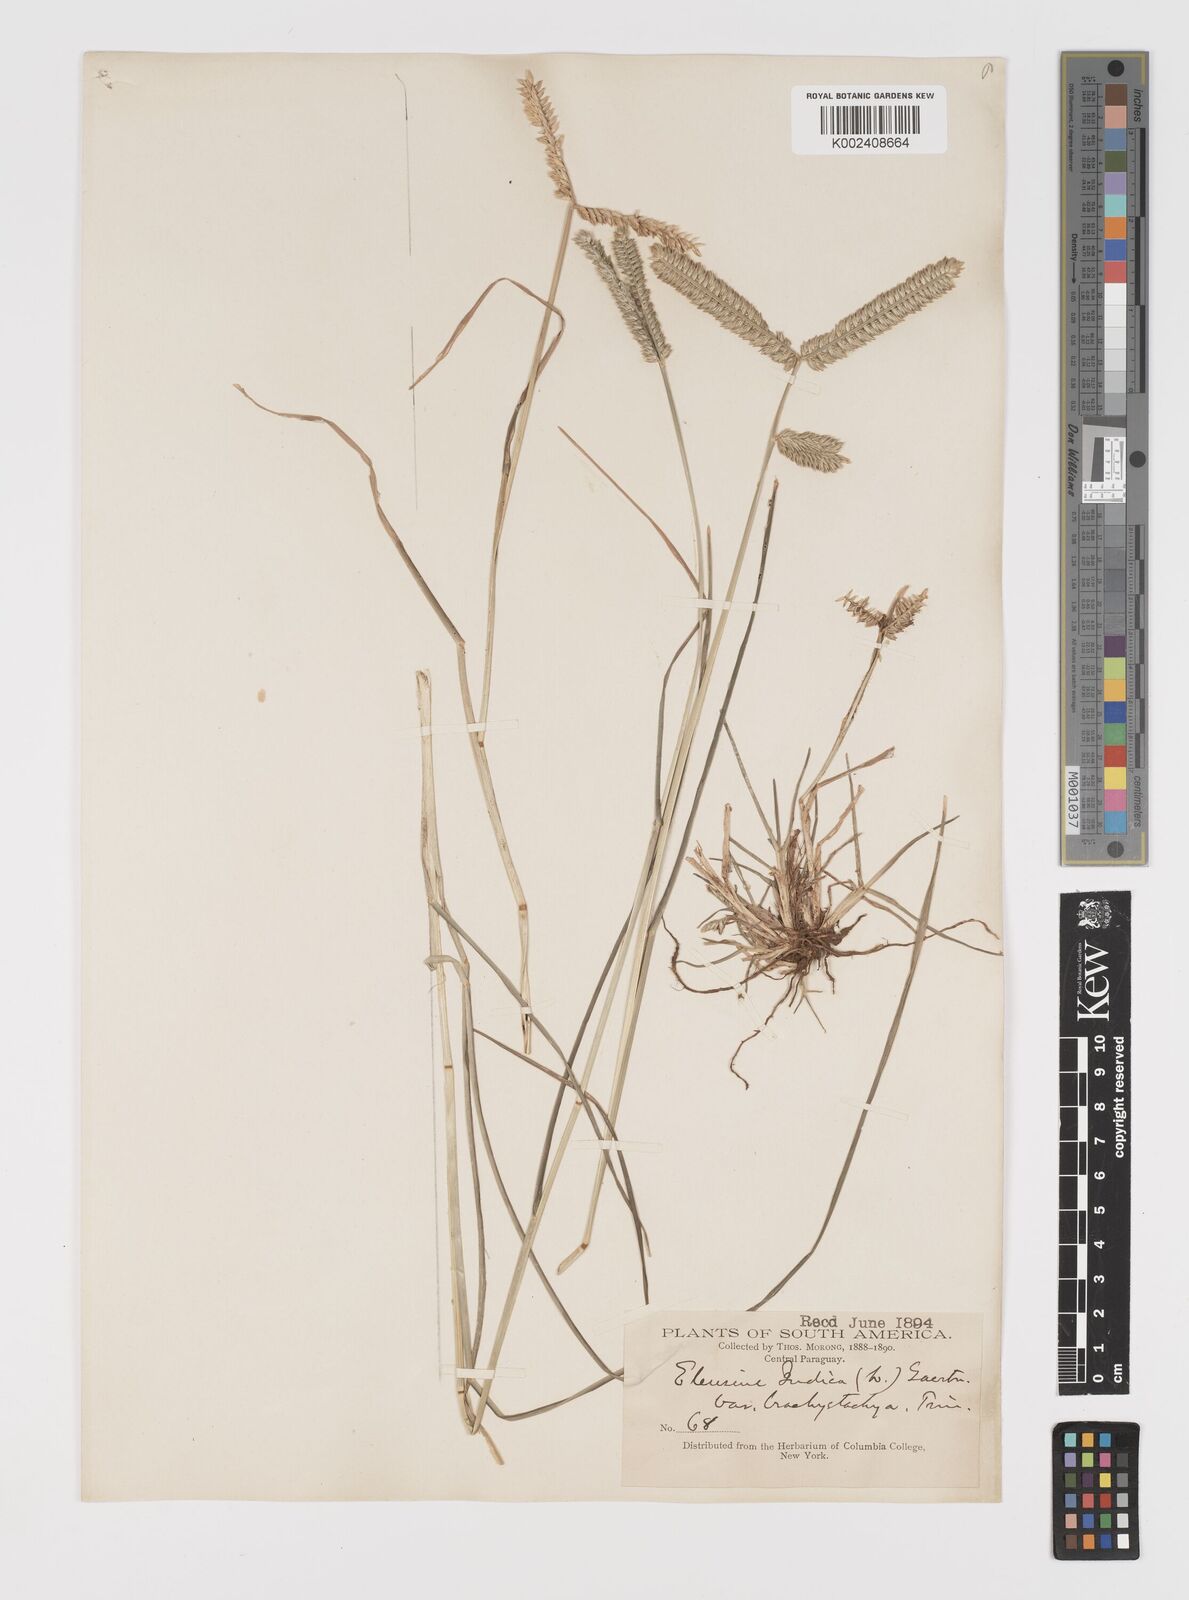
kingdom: Plantae
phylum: Tracheophyta
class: Liliopsida
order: Poales
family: Poaceae
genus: Eleusine
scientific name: Eleusine tristachya
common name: American yard-grass
